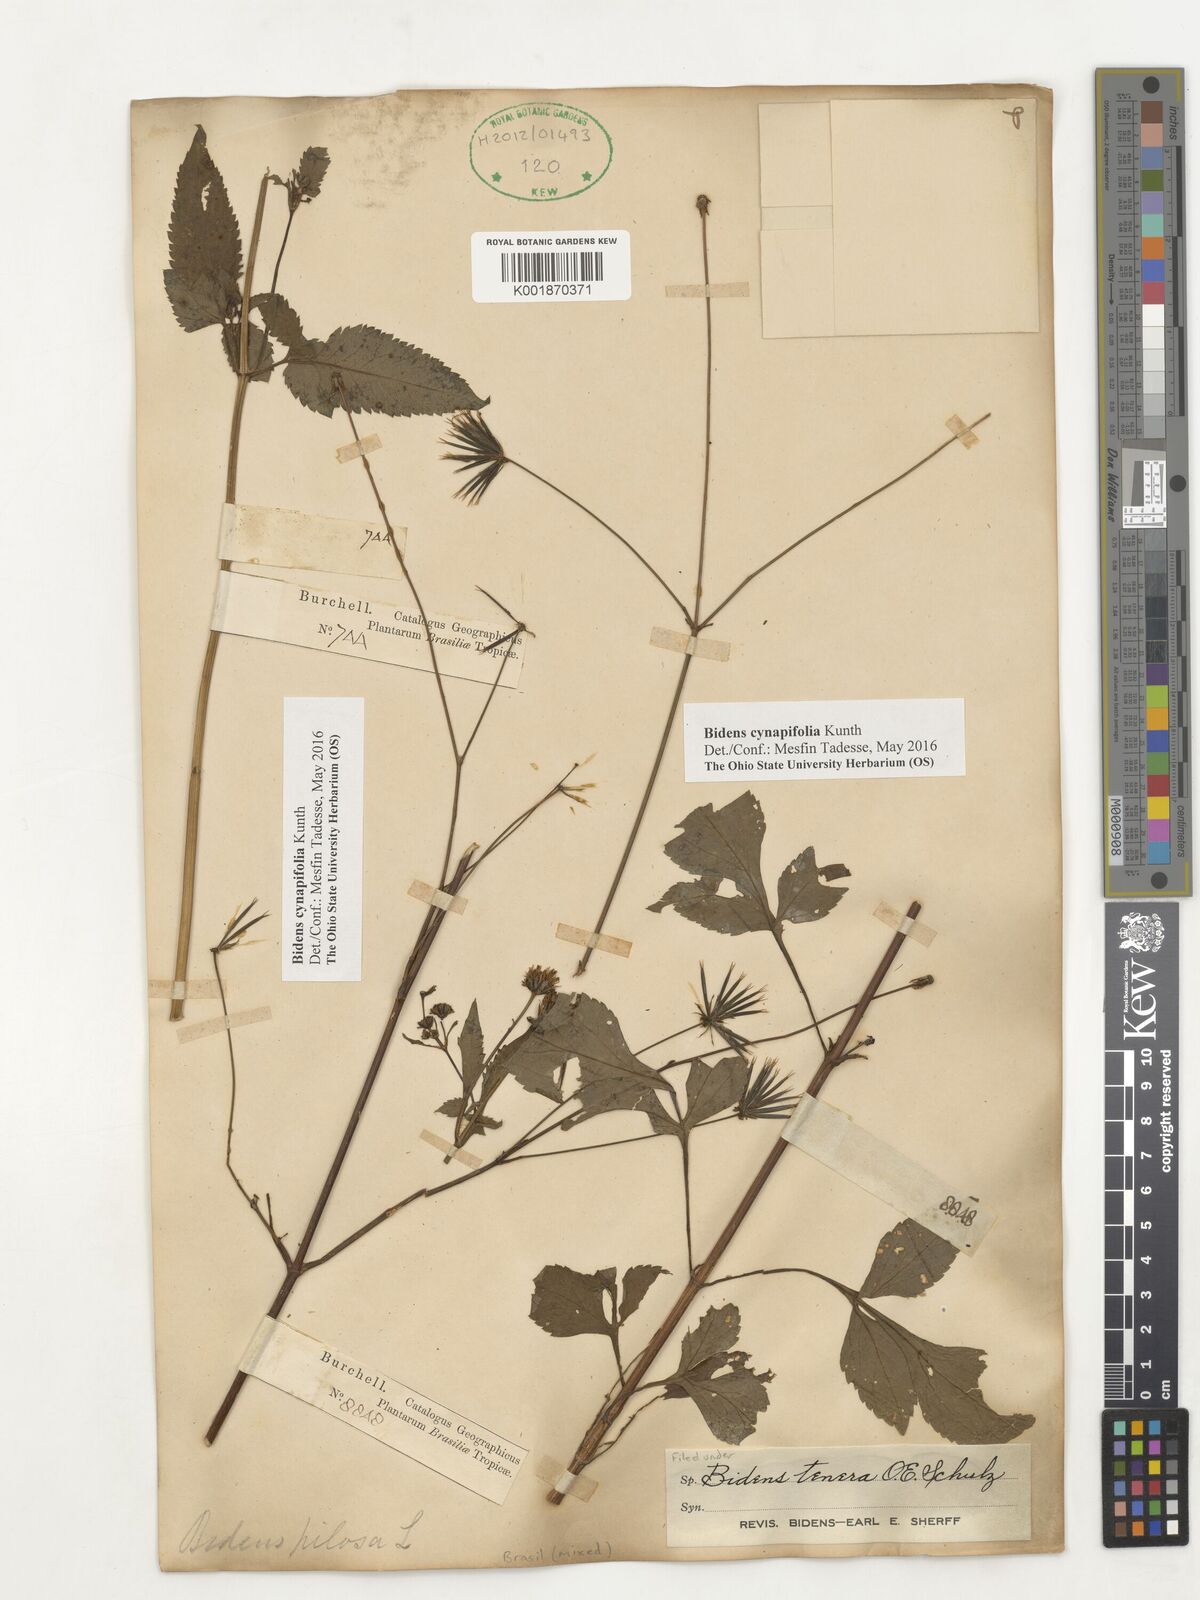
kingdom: Plantae
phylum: Tracheophyta
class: Magnoliopsida
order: Asterales
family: Asteraceae
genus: Bidens
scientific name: Bidens cynapiifolia
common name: Beggar's tick
